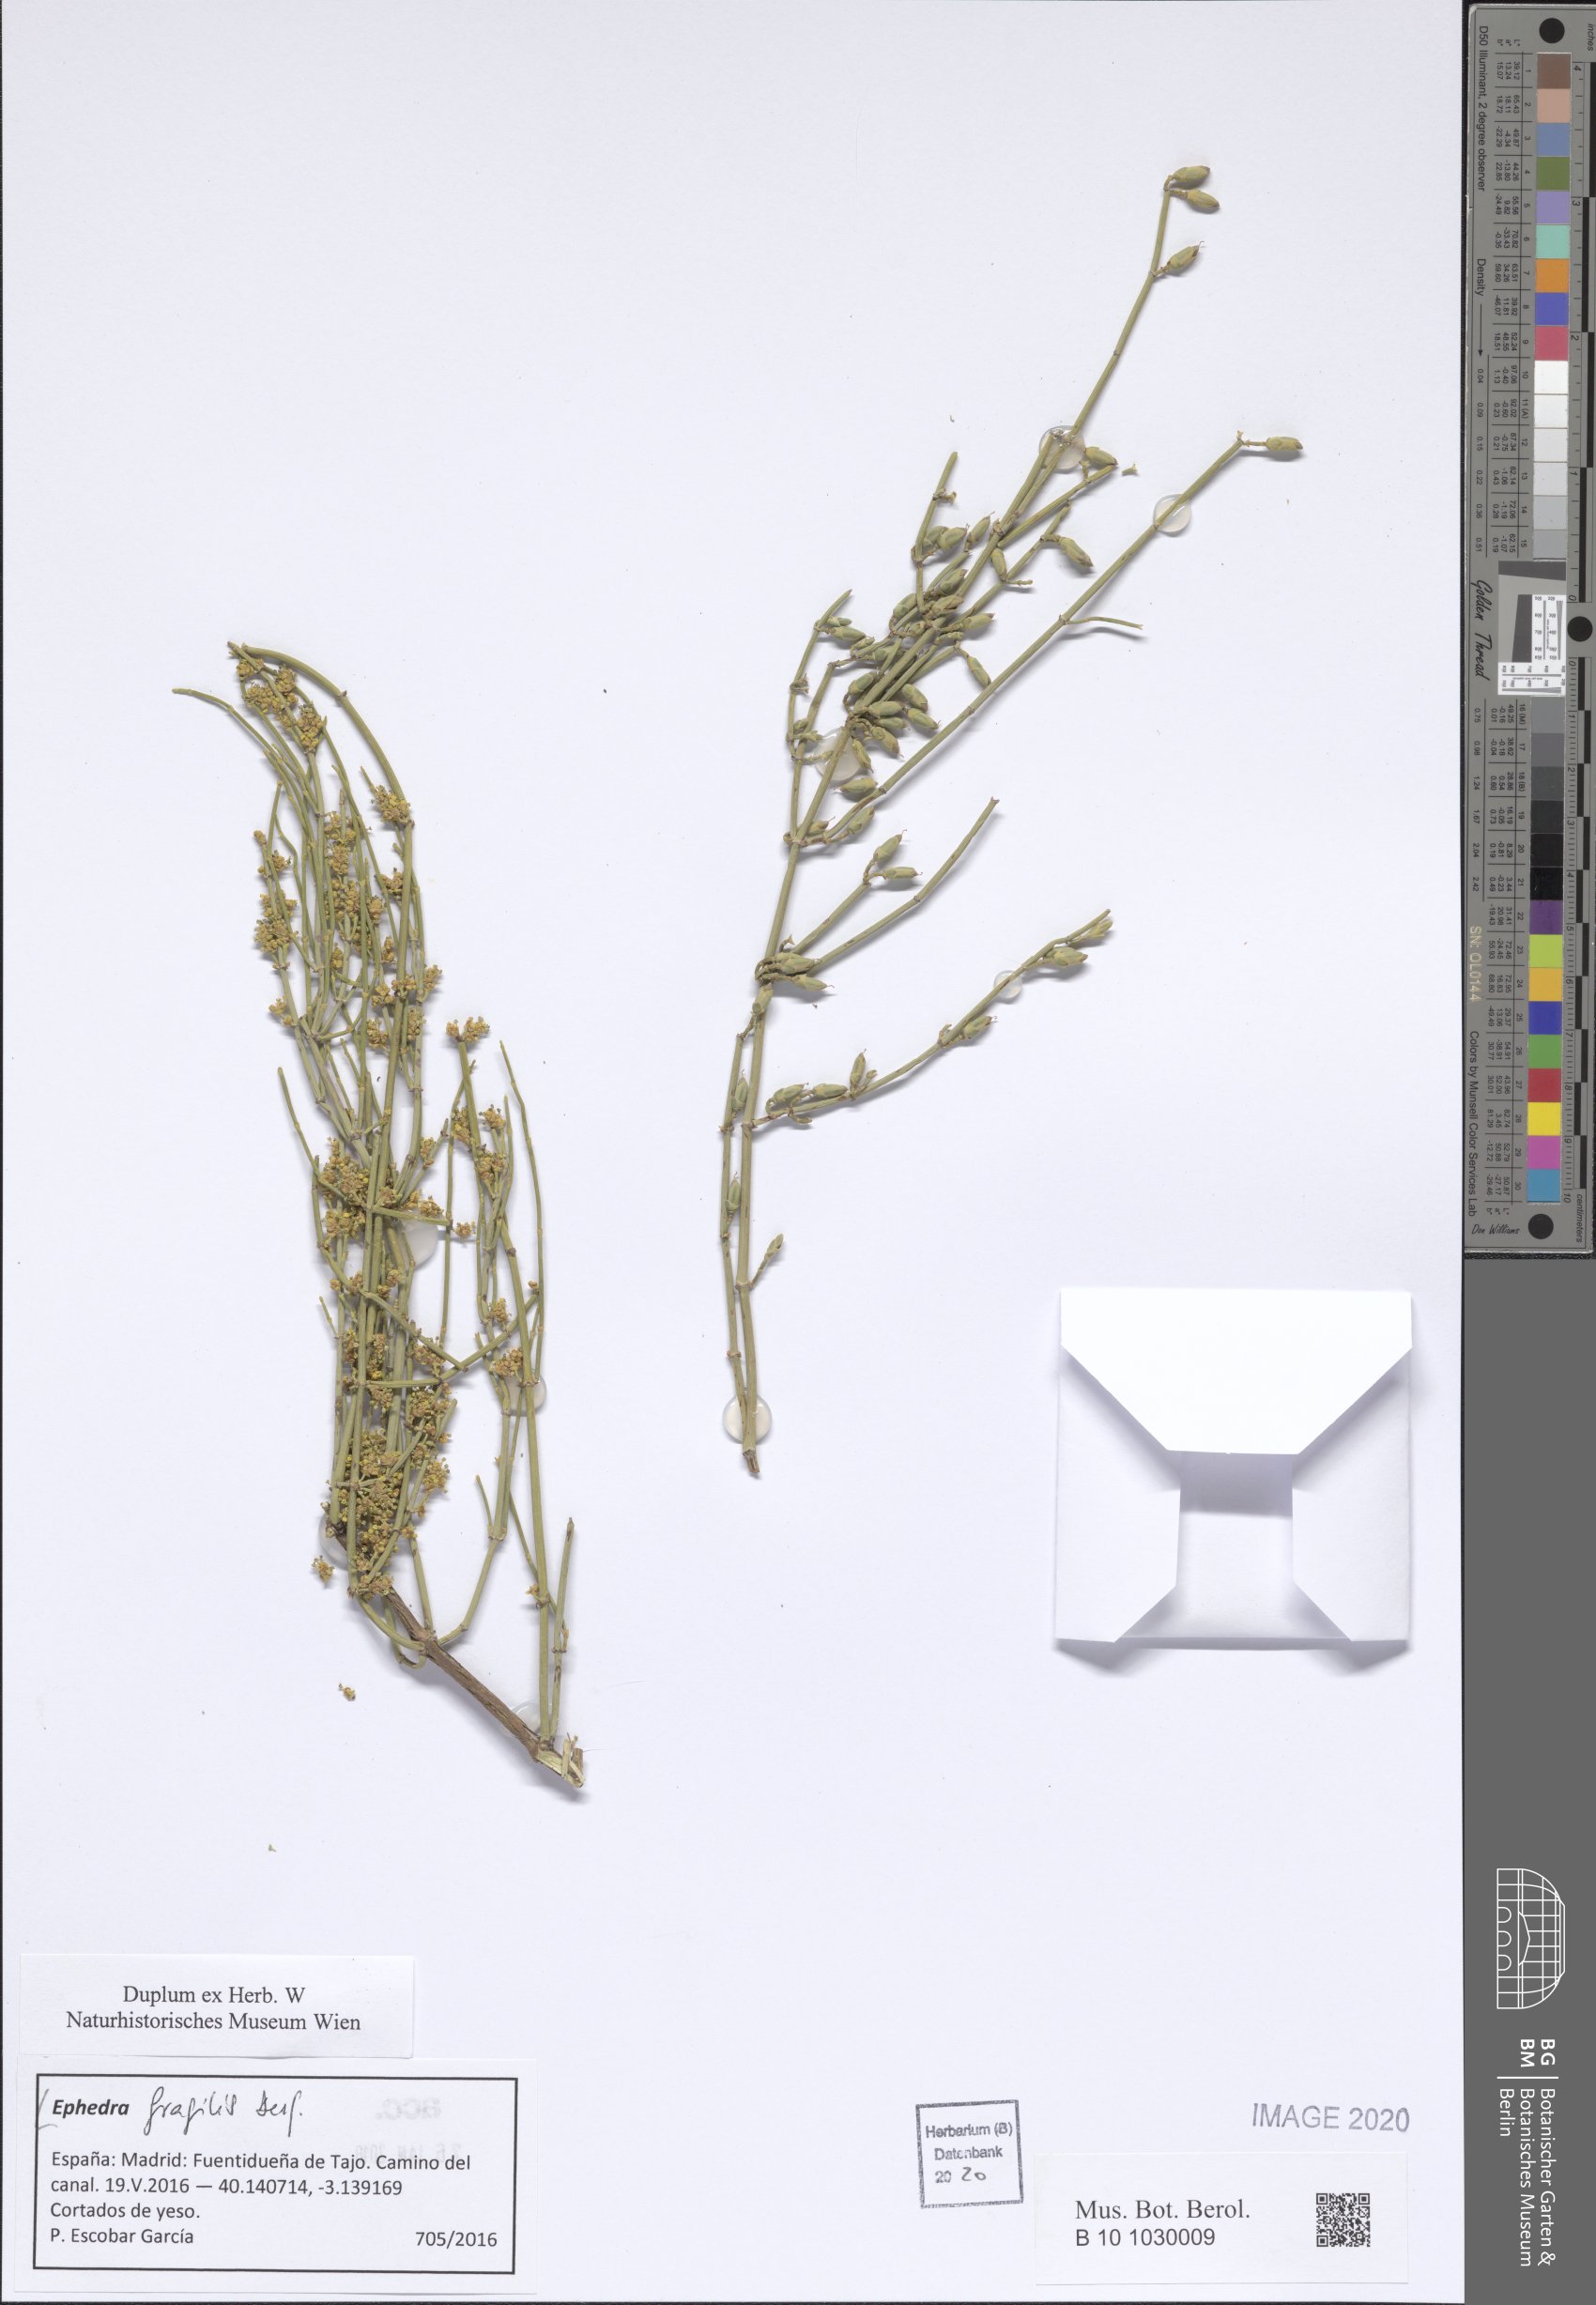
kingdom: Plantae
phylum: Tracheophyta
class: Gnetopsida
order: Ephedrales
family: Ephedraceae
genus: Ephedra
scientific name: Ephedra fragilis
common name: Joint pine
